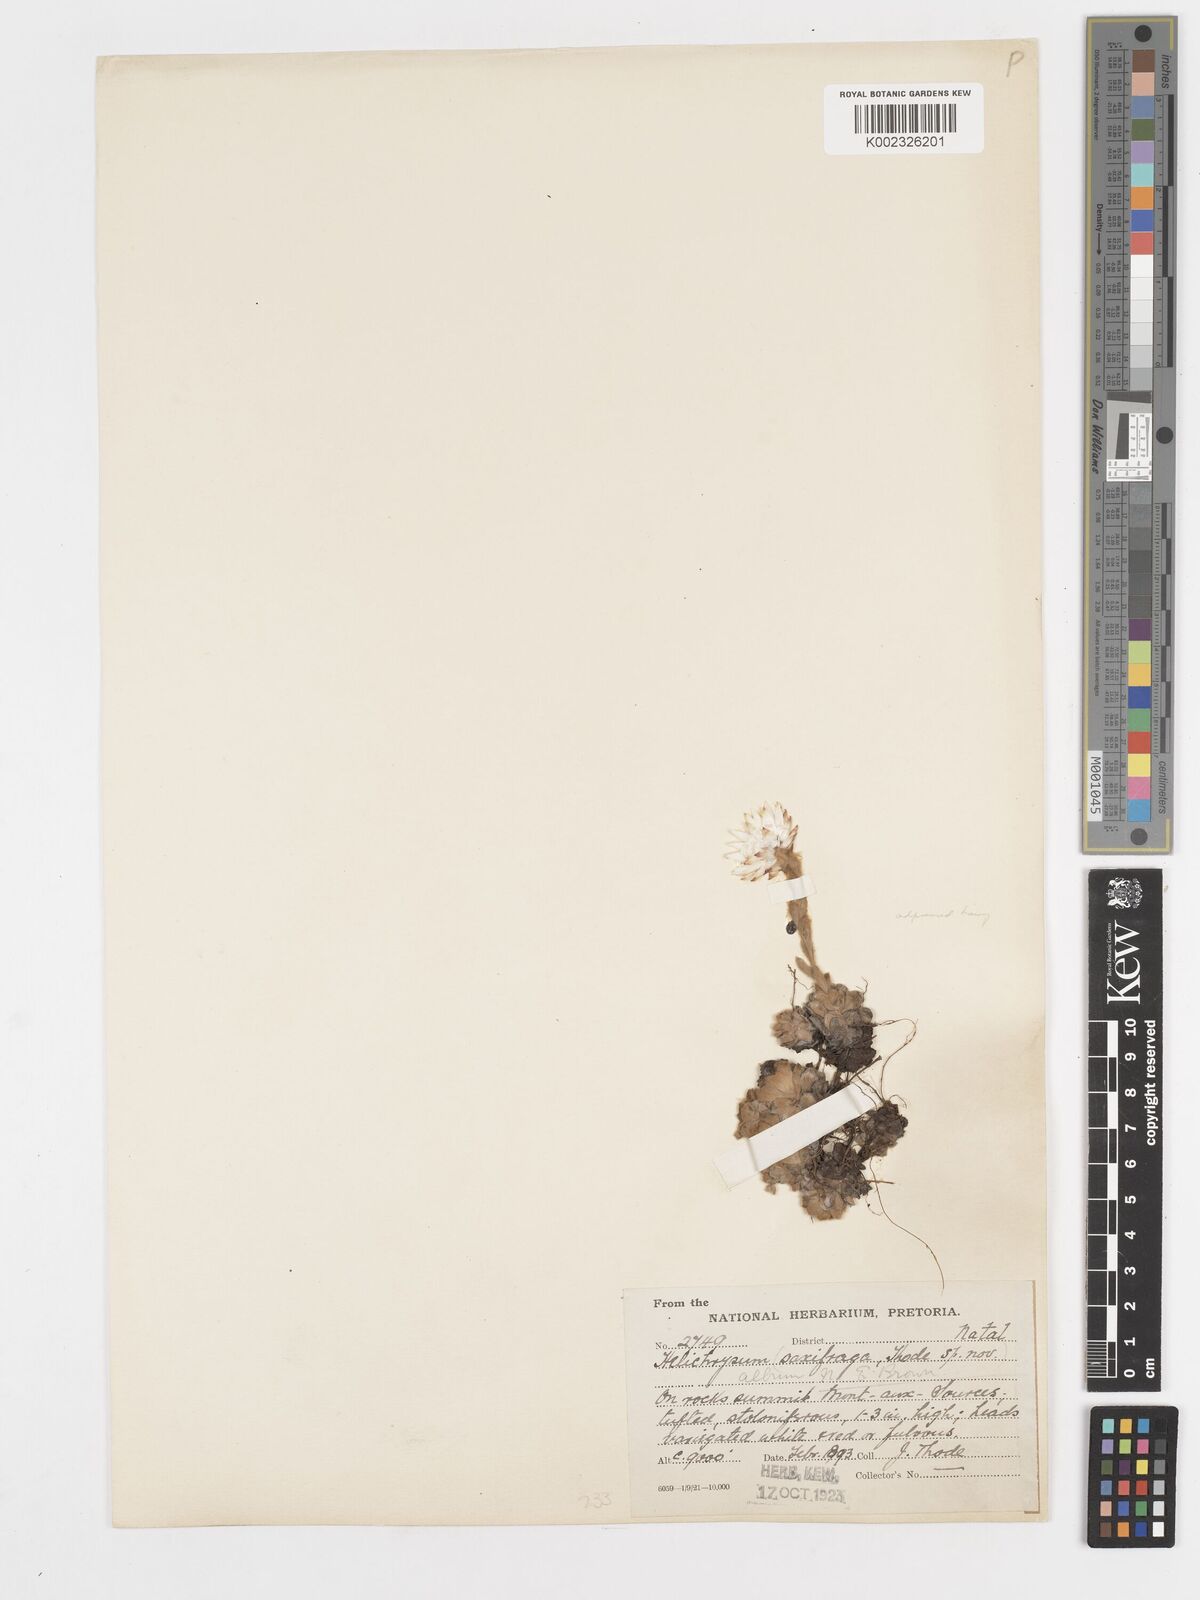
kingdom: Plantae
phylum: Tracheophyta
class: Magnoliopsida
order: Asterales
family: Asteraceae
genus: Helichrysum
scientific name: Helichrysum milfordiae
